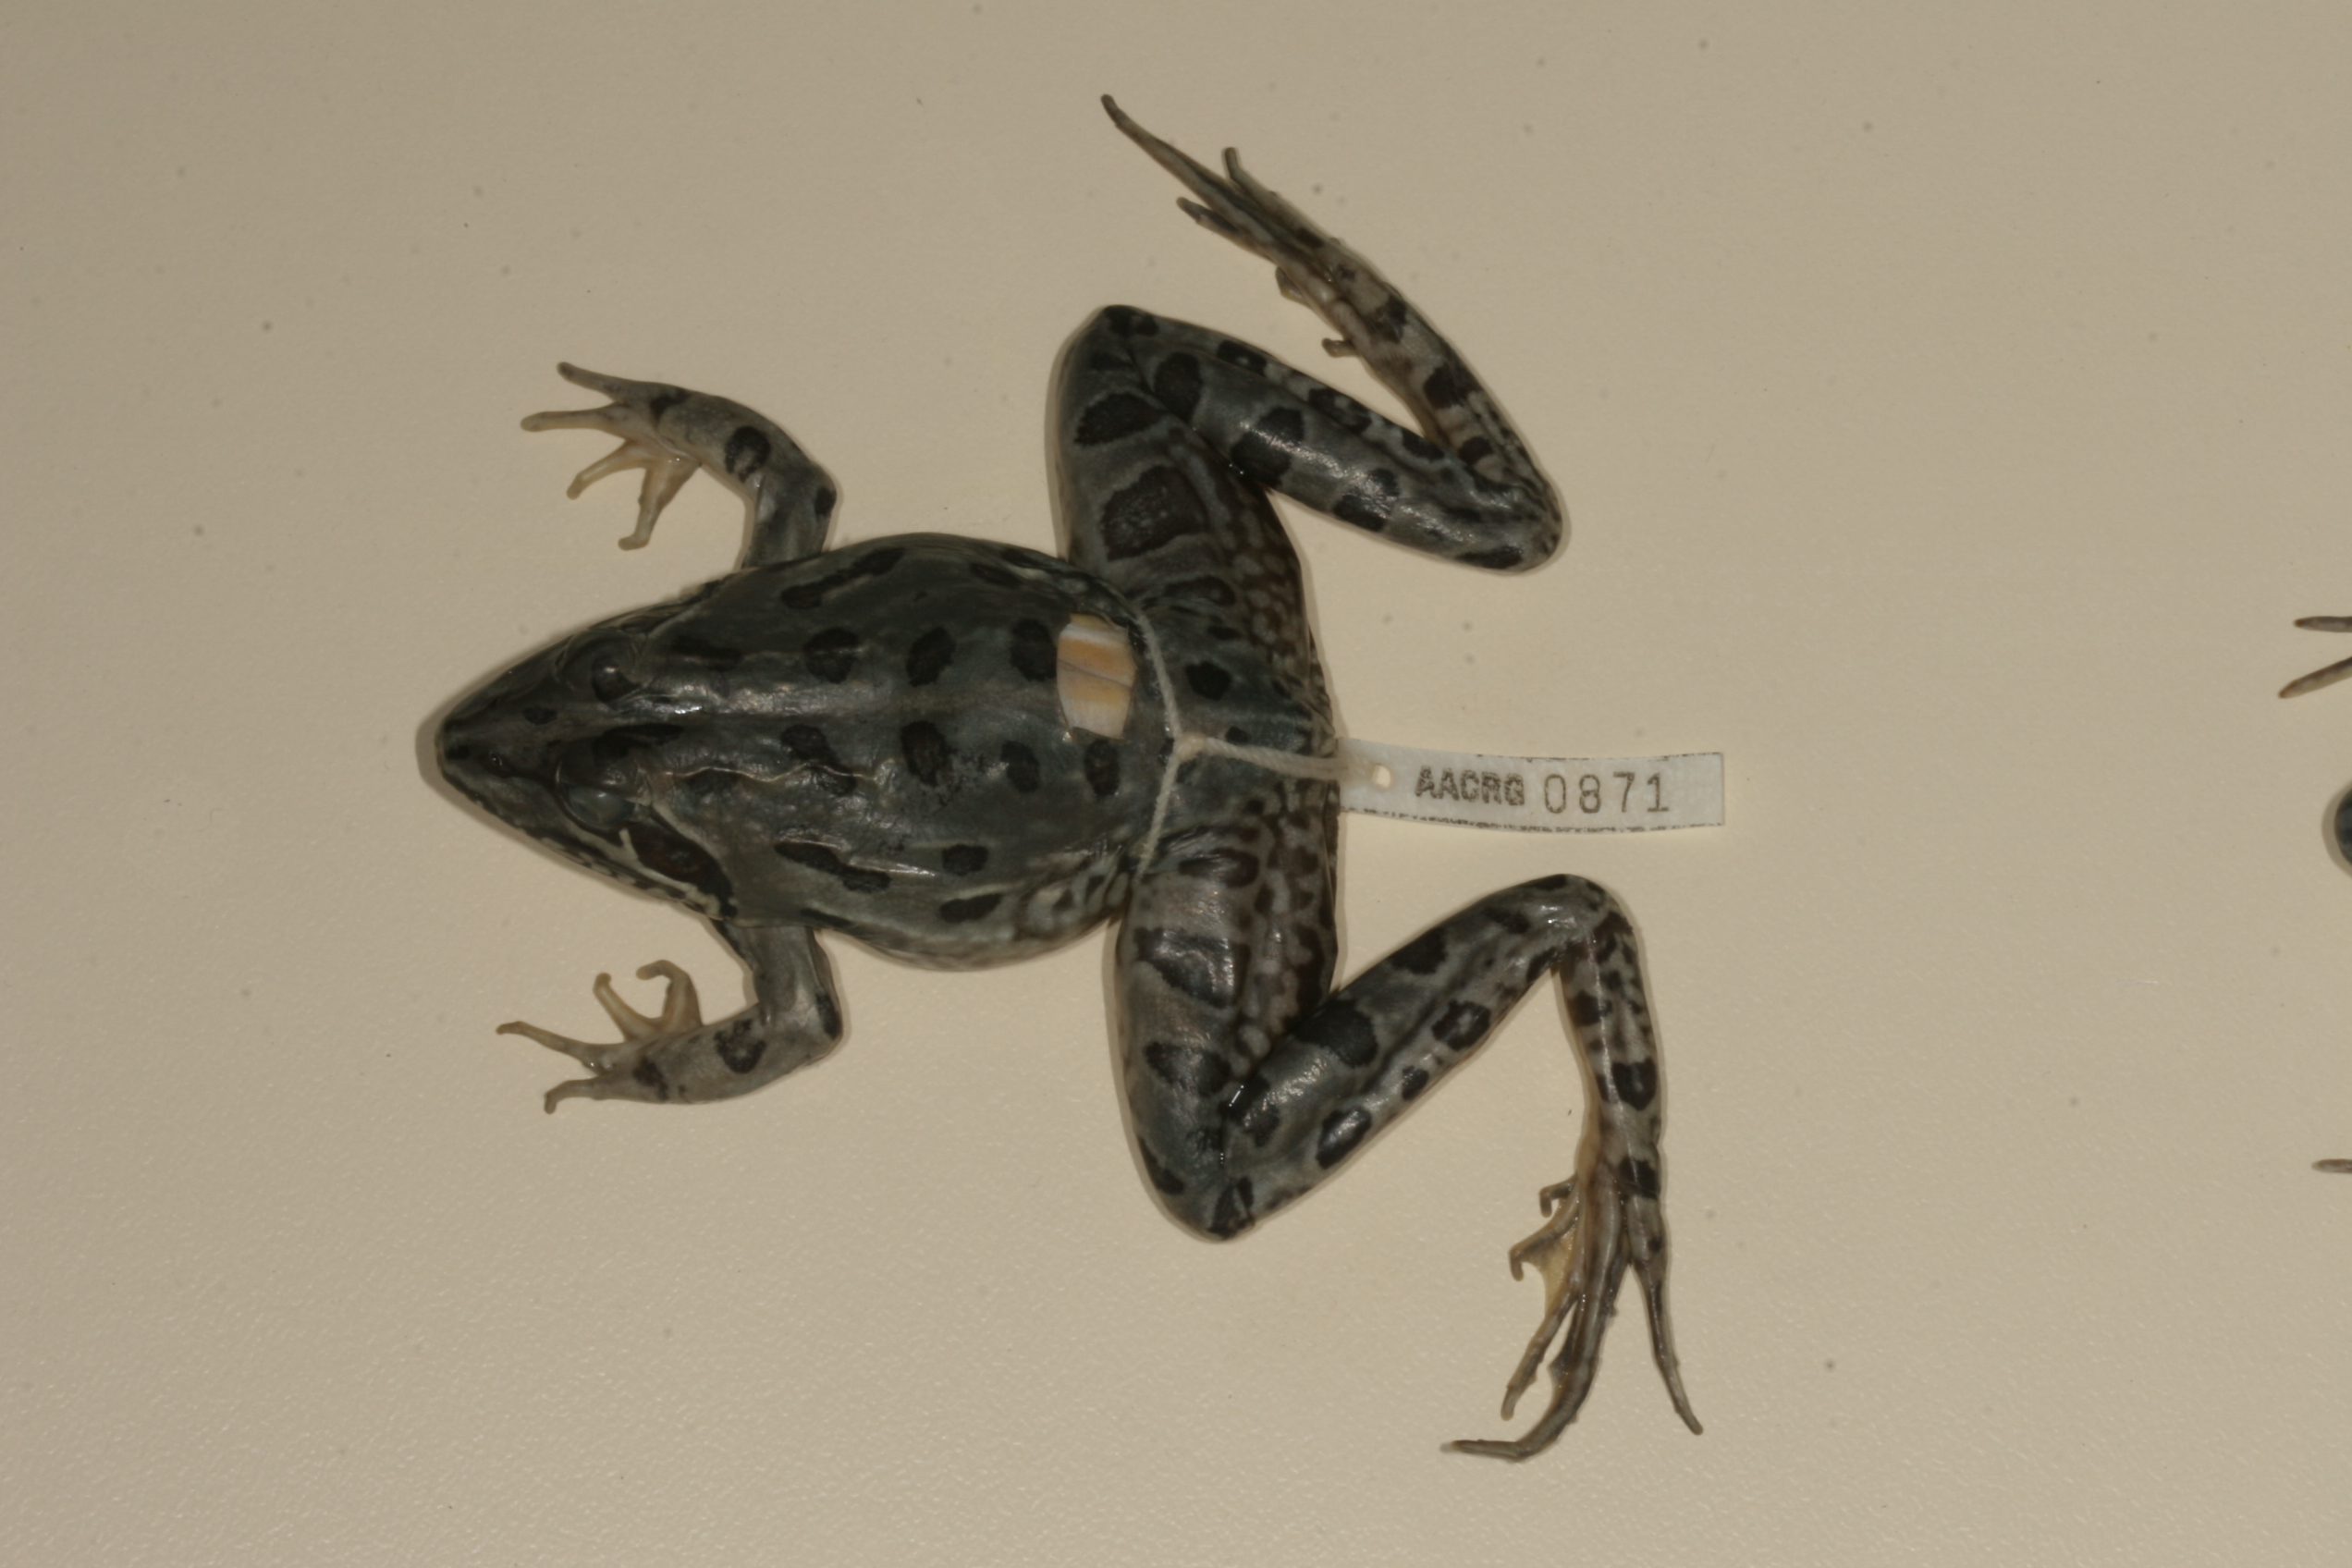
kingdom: Animalia
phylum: Chordata
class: Amphibia
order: Anura
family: Pyxicephalidae
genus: Amietia
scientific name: Amietia fuscigula
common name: Cape rana
